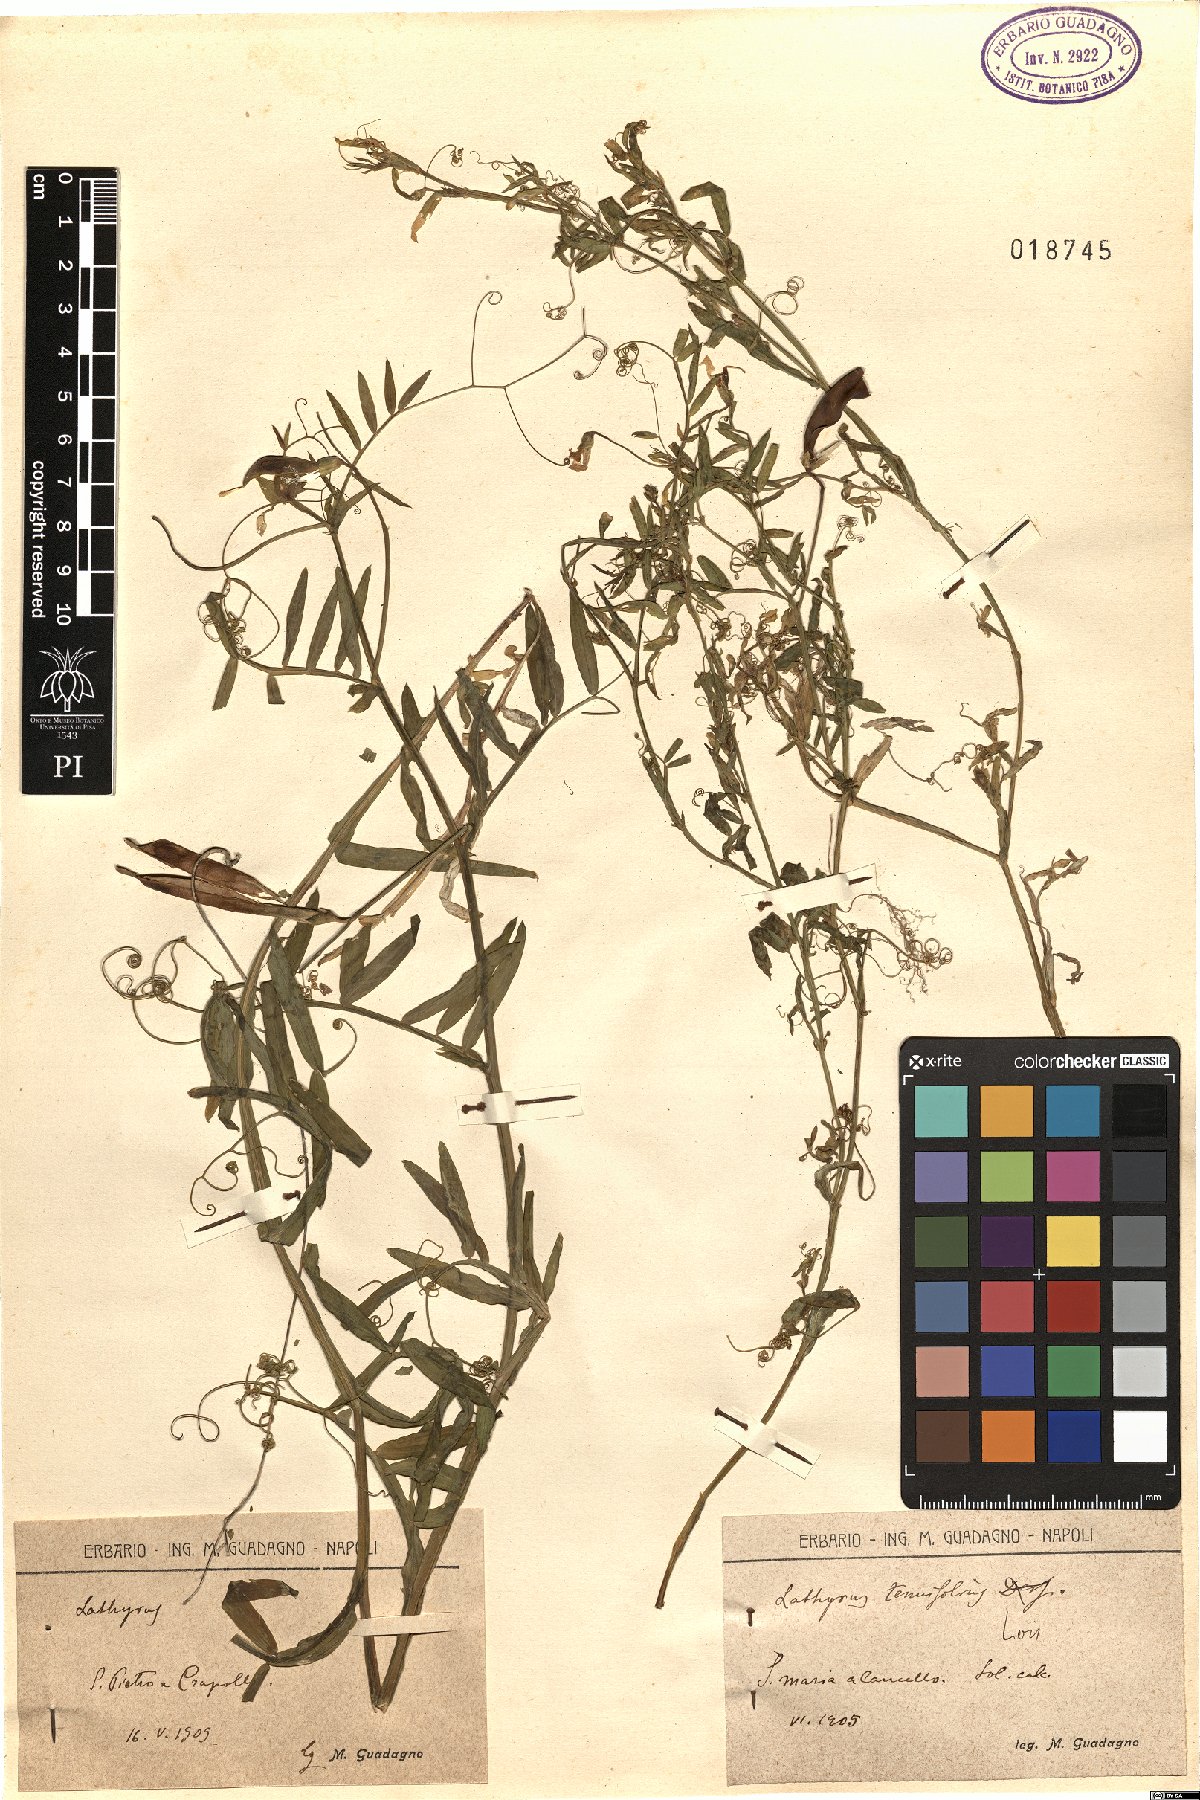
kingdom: Plantae
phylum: Tracheophyta
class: Magnoliopsida
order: Fabales
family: Fabaceae
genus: Lathyrus
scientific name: Lathyrus clymenum
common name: Spanish vetchling
